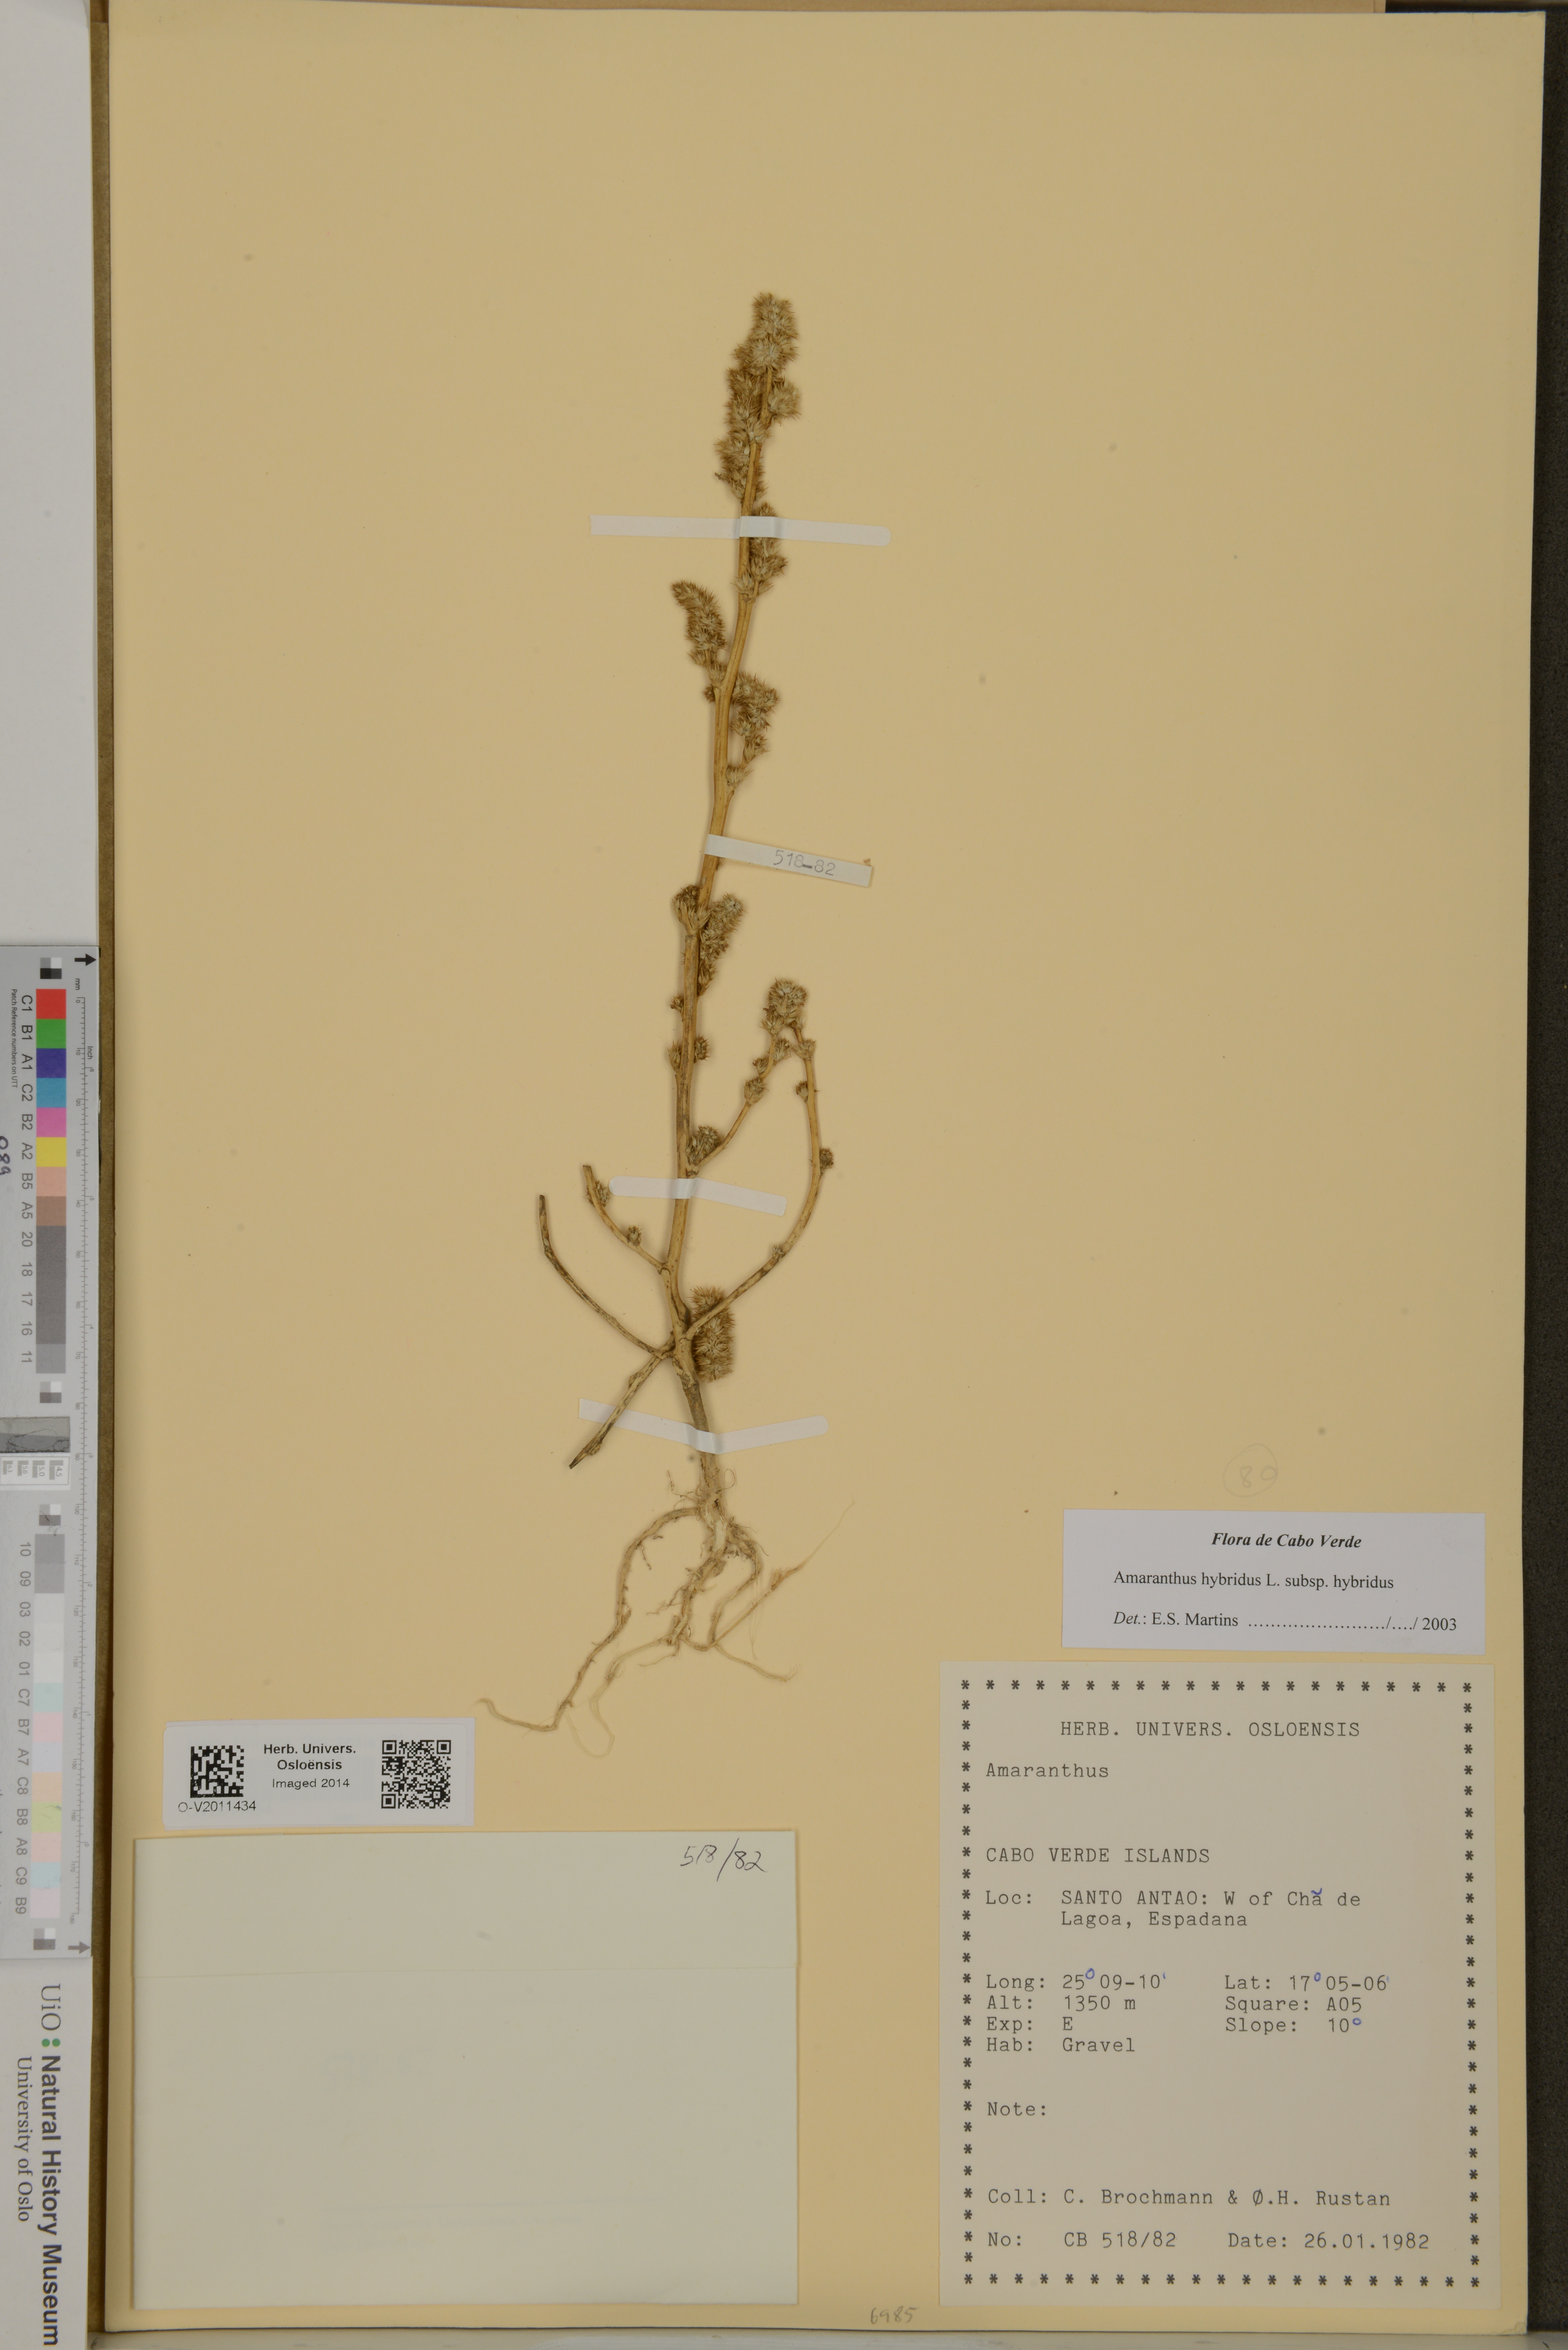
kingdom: Plantae
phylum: Tracheophyta
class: Magnoliopsida
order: Caryophyllales
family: Amaranthaceae
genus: Amaranthus
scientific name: Amaranthus hybridus
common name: Green amaranth
